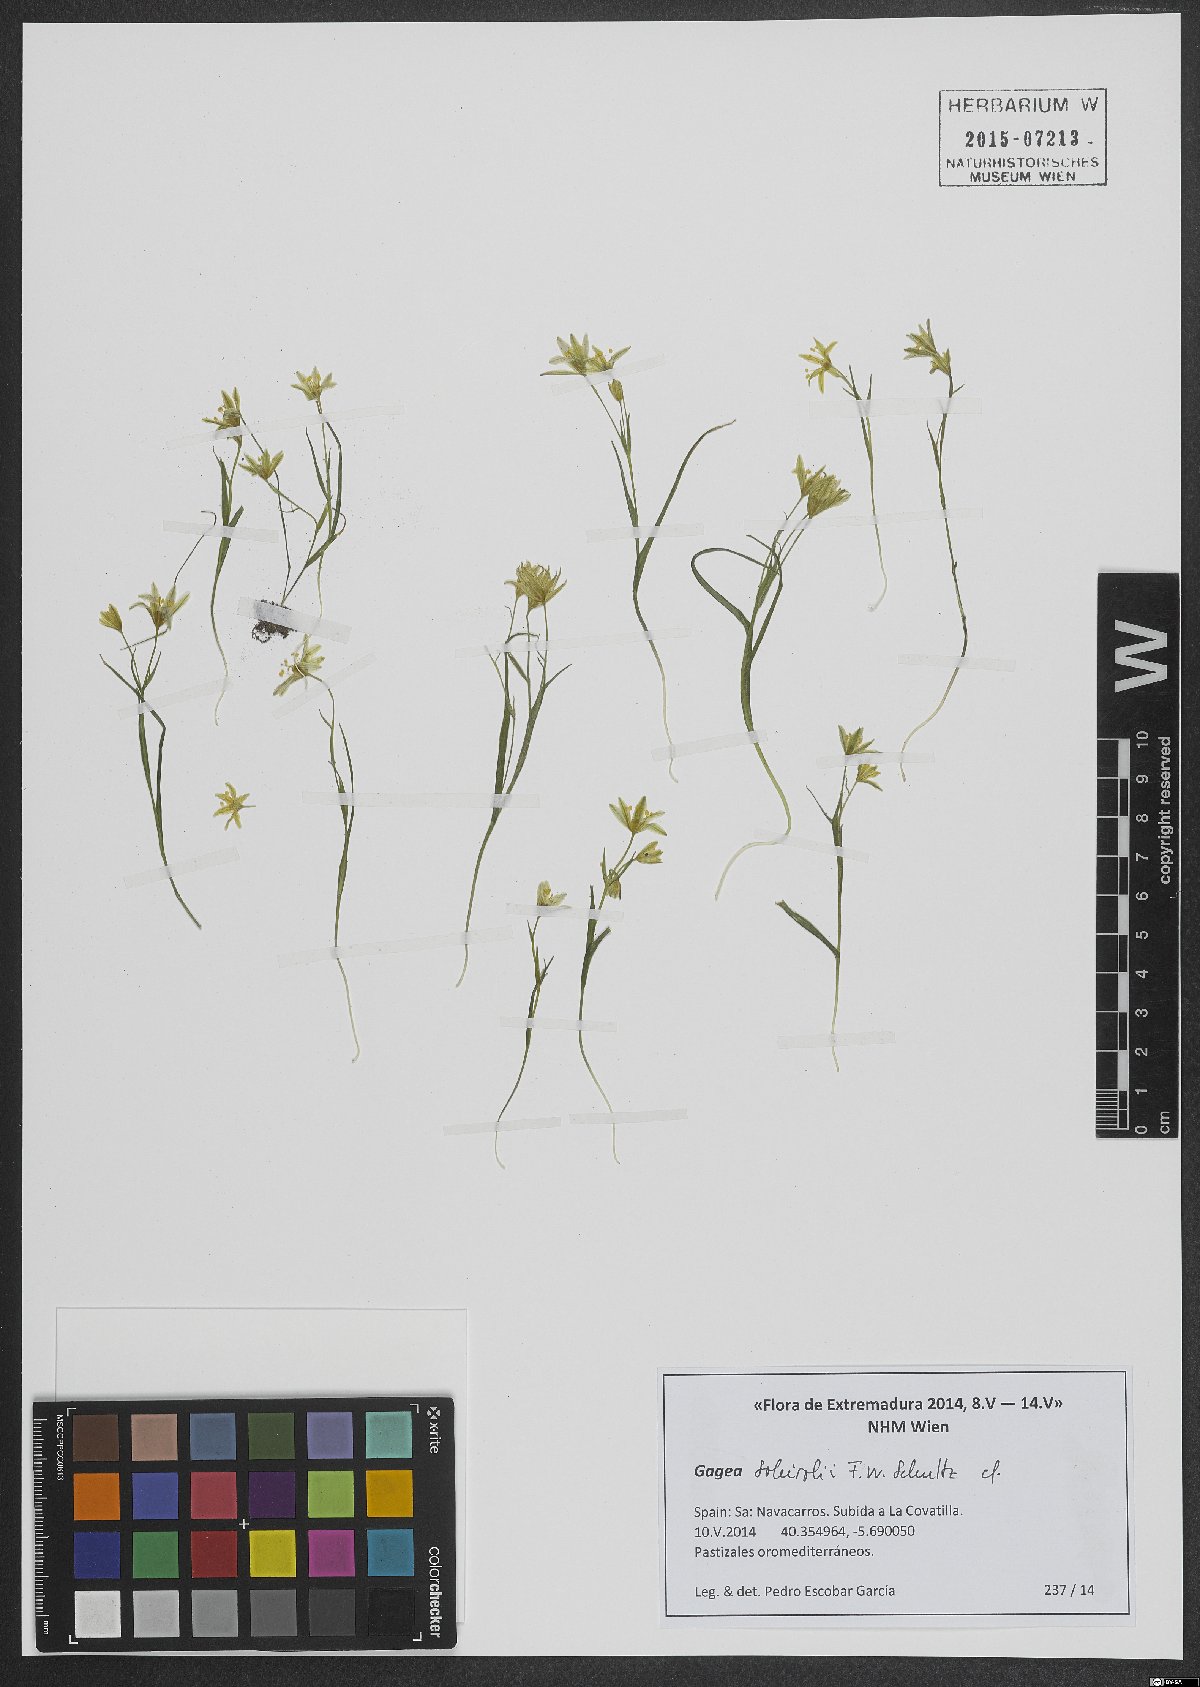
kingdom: Plantae
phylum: Tracheophyta
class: Liliopsida
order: Liliales
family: Liliaceae
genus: Gagea
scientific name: Gagea soleirolii
